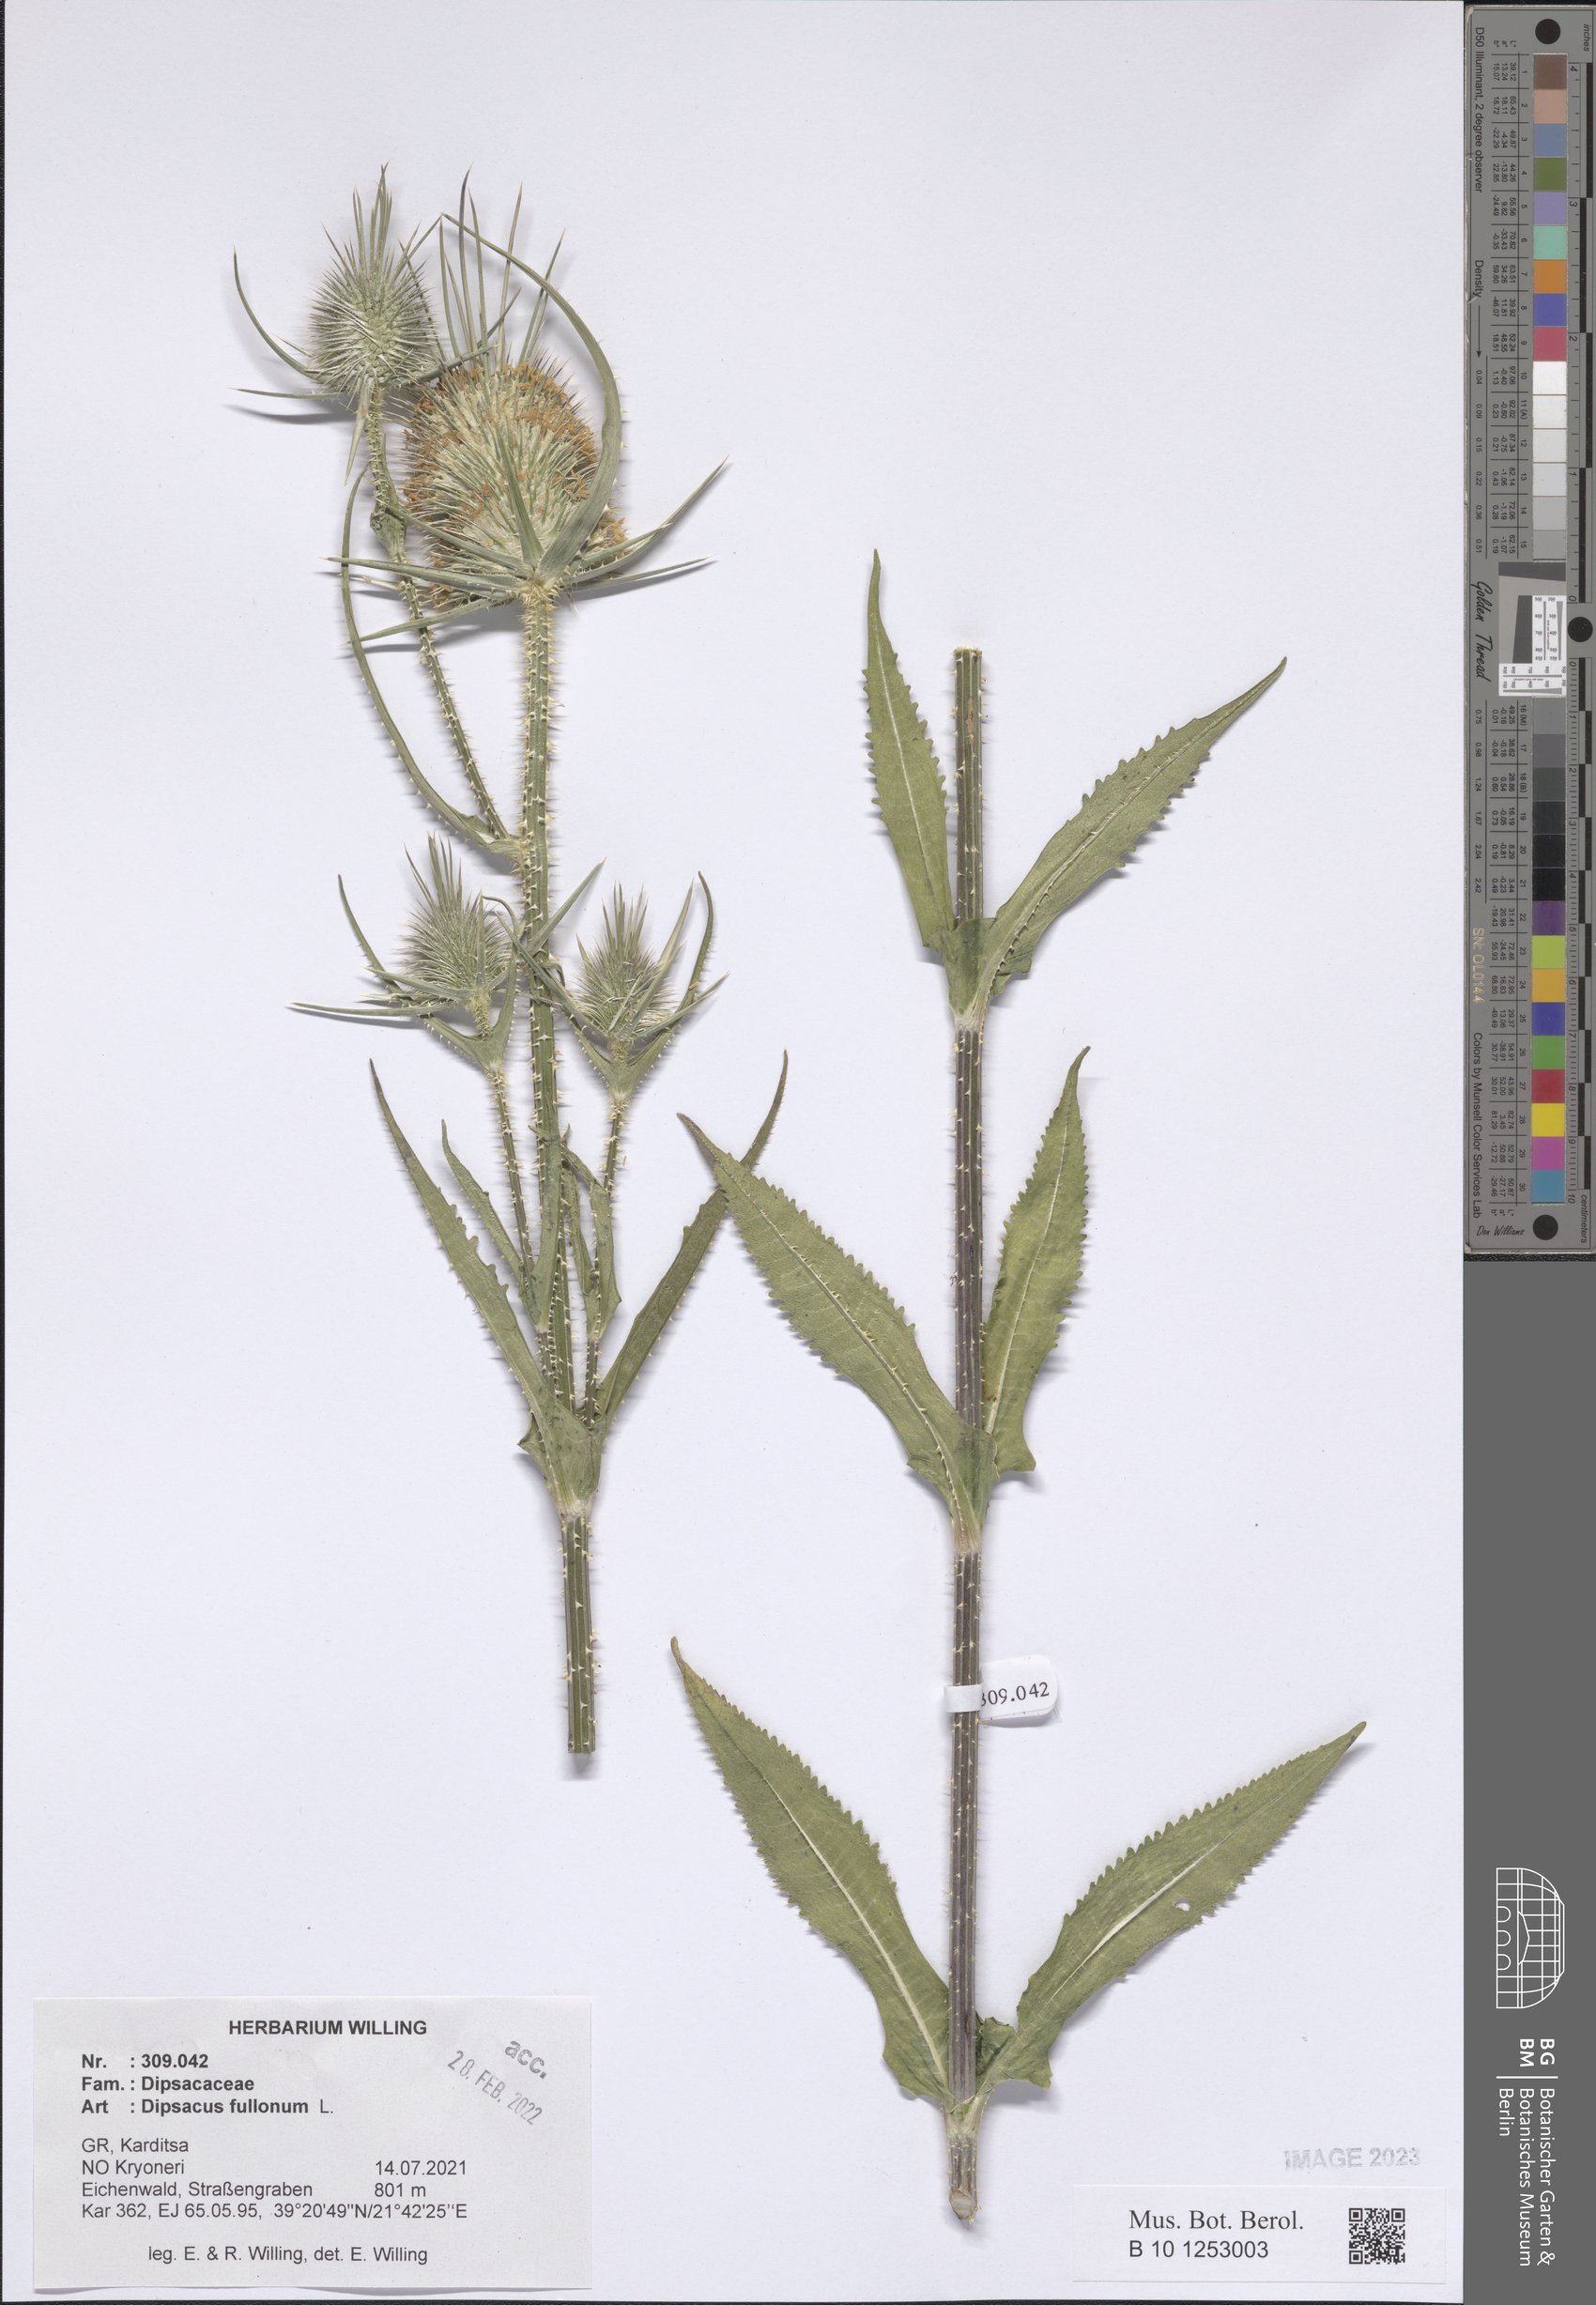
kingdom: Plantae
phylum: Tracheophyta
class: Magnoliopsida
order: Dipsacales
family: Caprifoliaceae
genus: Dipsacus
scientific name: Dipsacus fullonum
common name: Teasel
